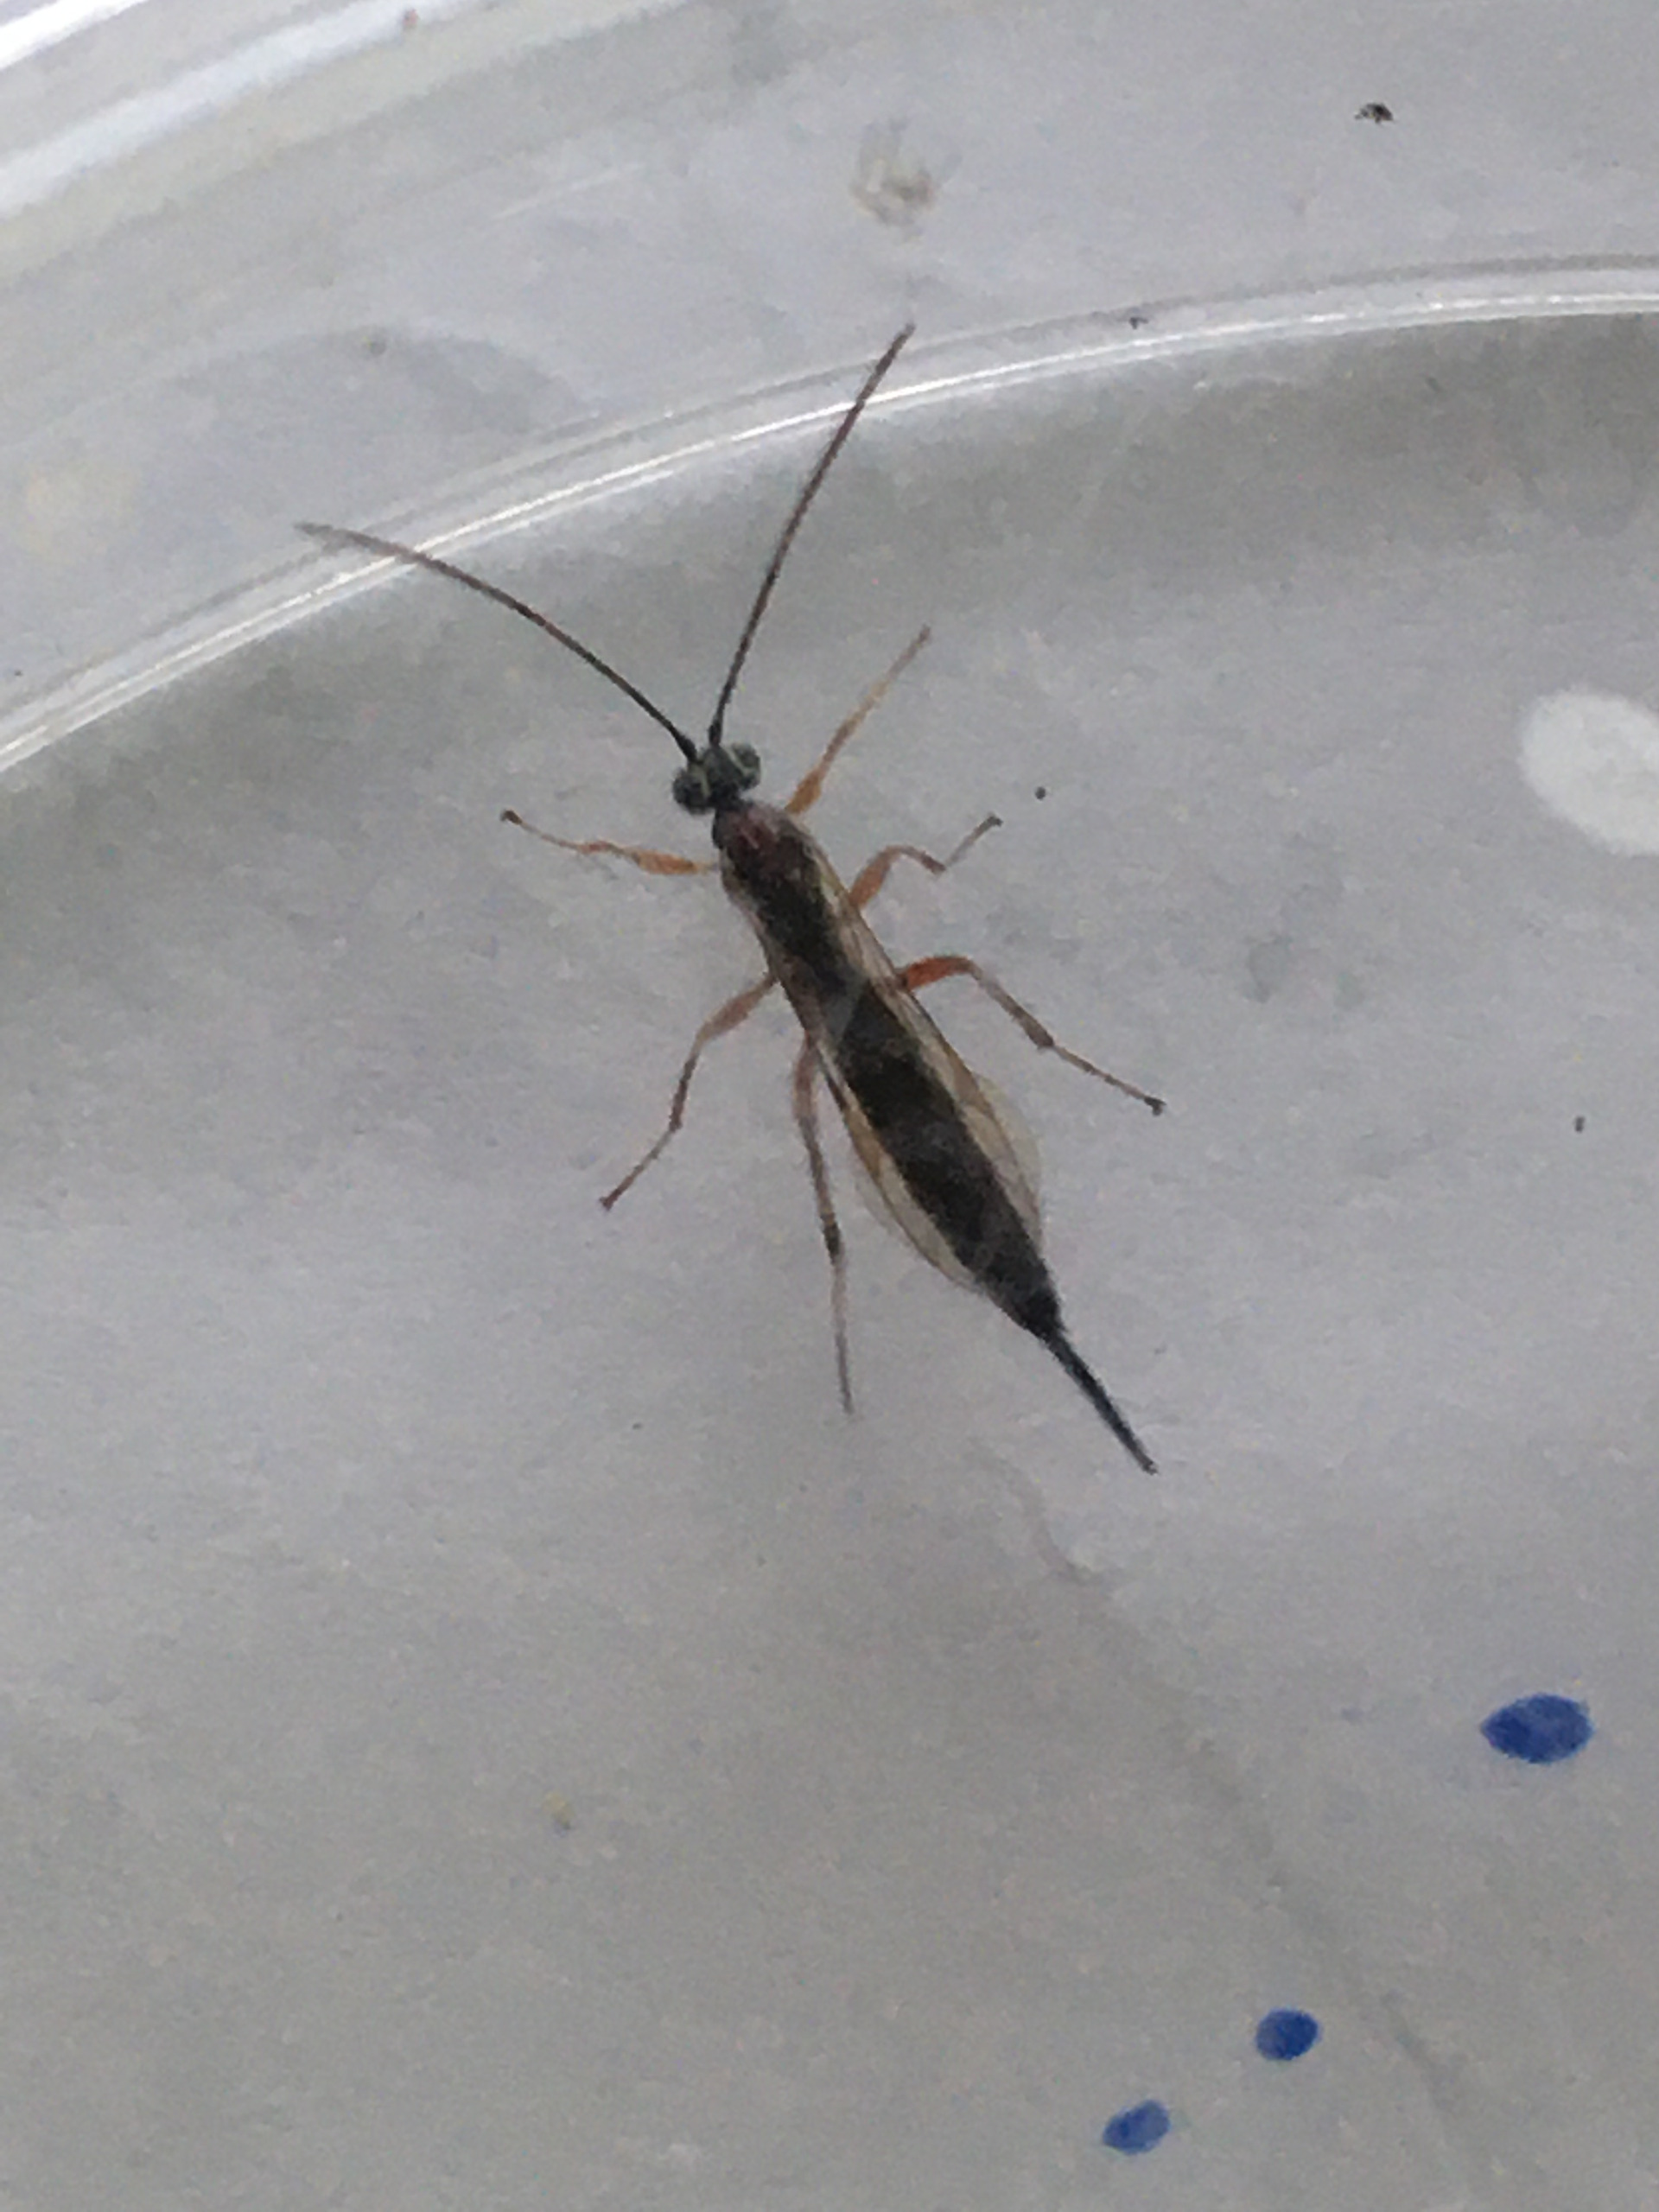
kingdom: Animalia
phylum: Arthropoda
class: Insecta
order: Hymenoptera
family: Ichneumonidae
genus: Tromatobia
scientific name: Tromatobia lineatoria
